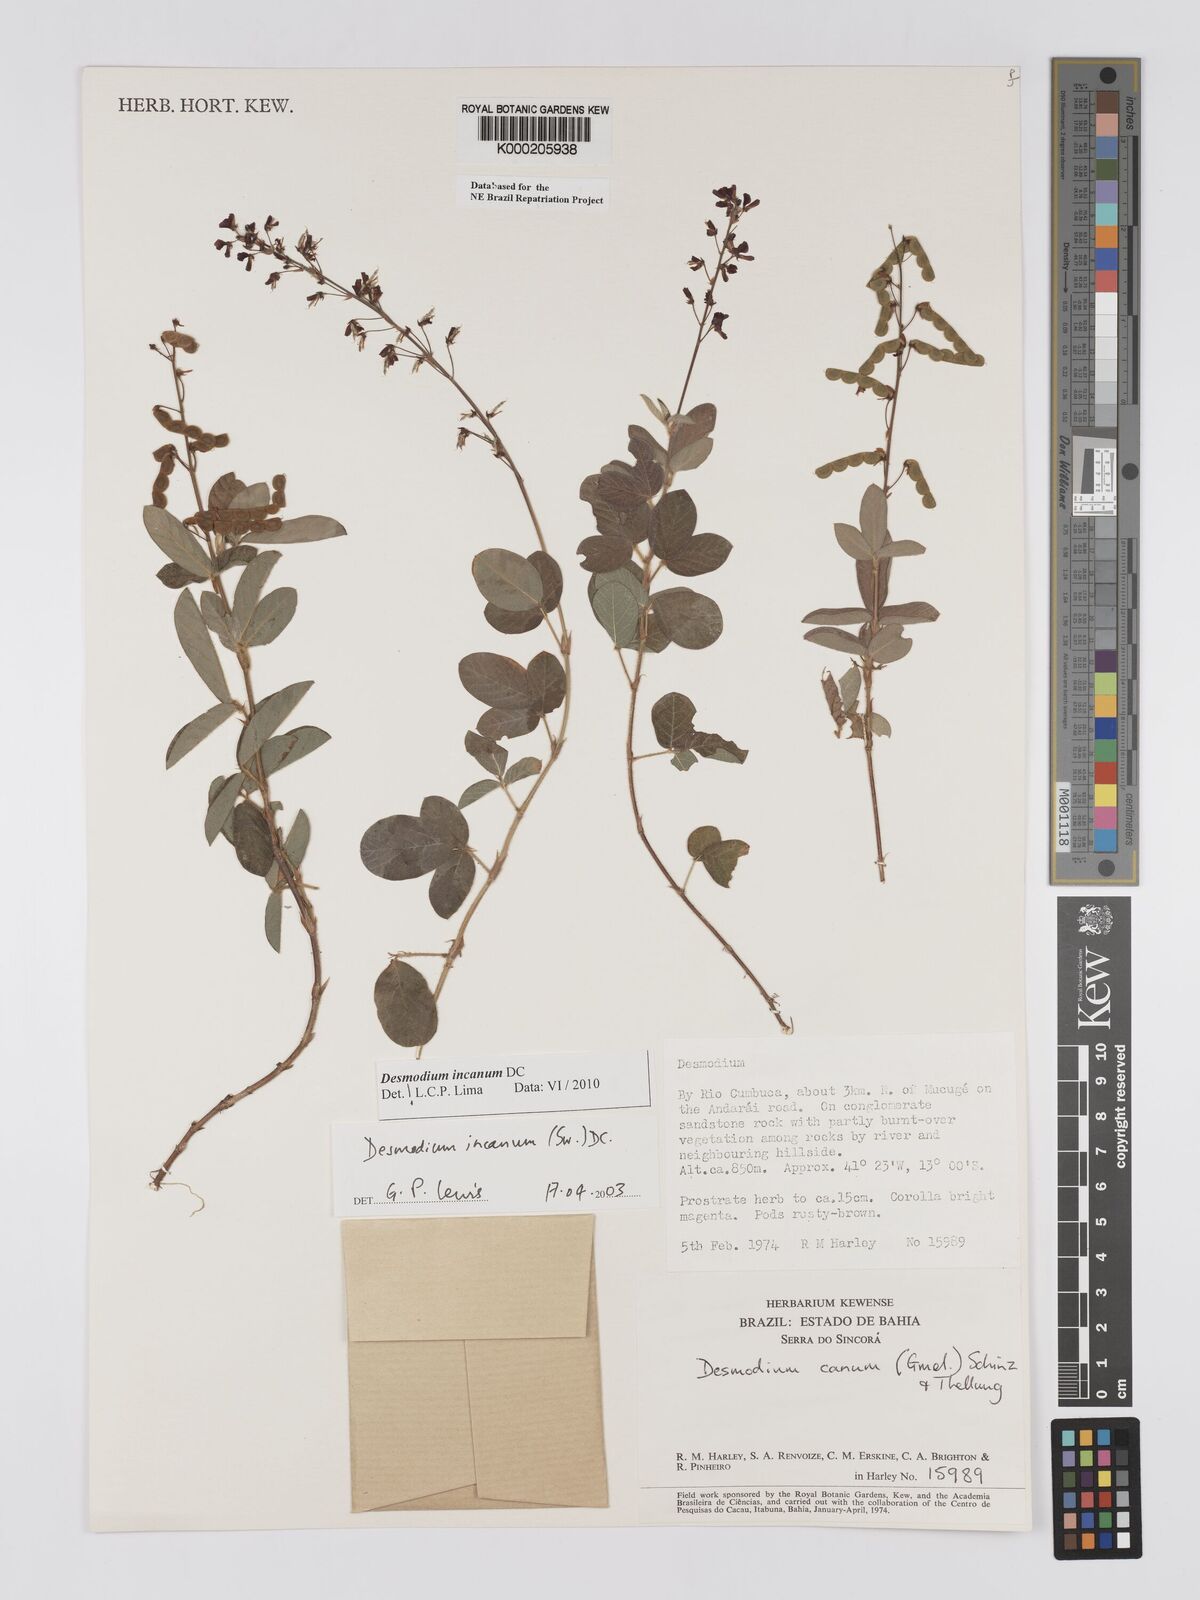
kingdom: Plantae
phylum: Tracheophyta
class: Magnoliopsida
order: Fabales
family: Fabaceae
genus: Desmodium
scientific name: Desmodium incanum
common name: Tickclover
